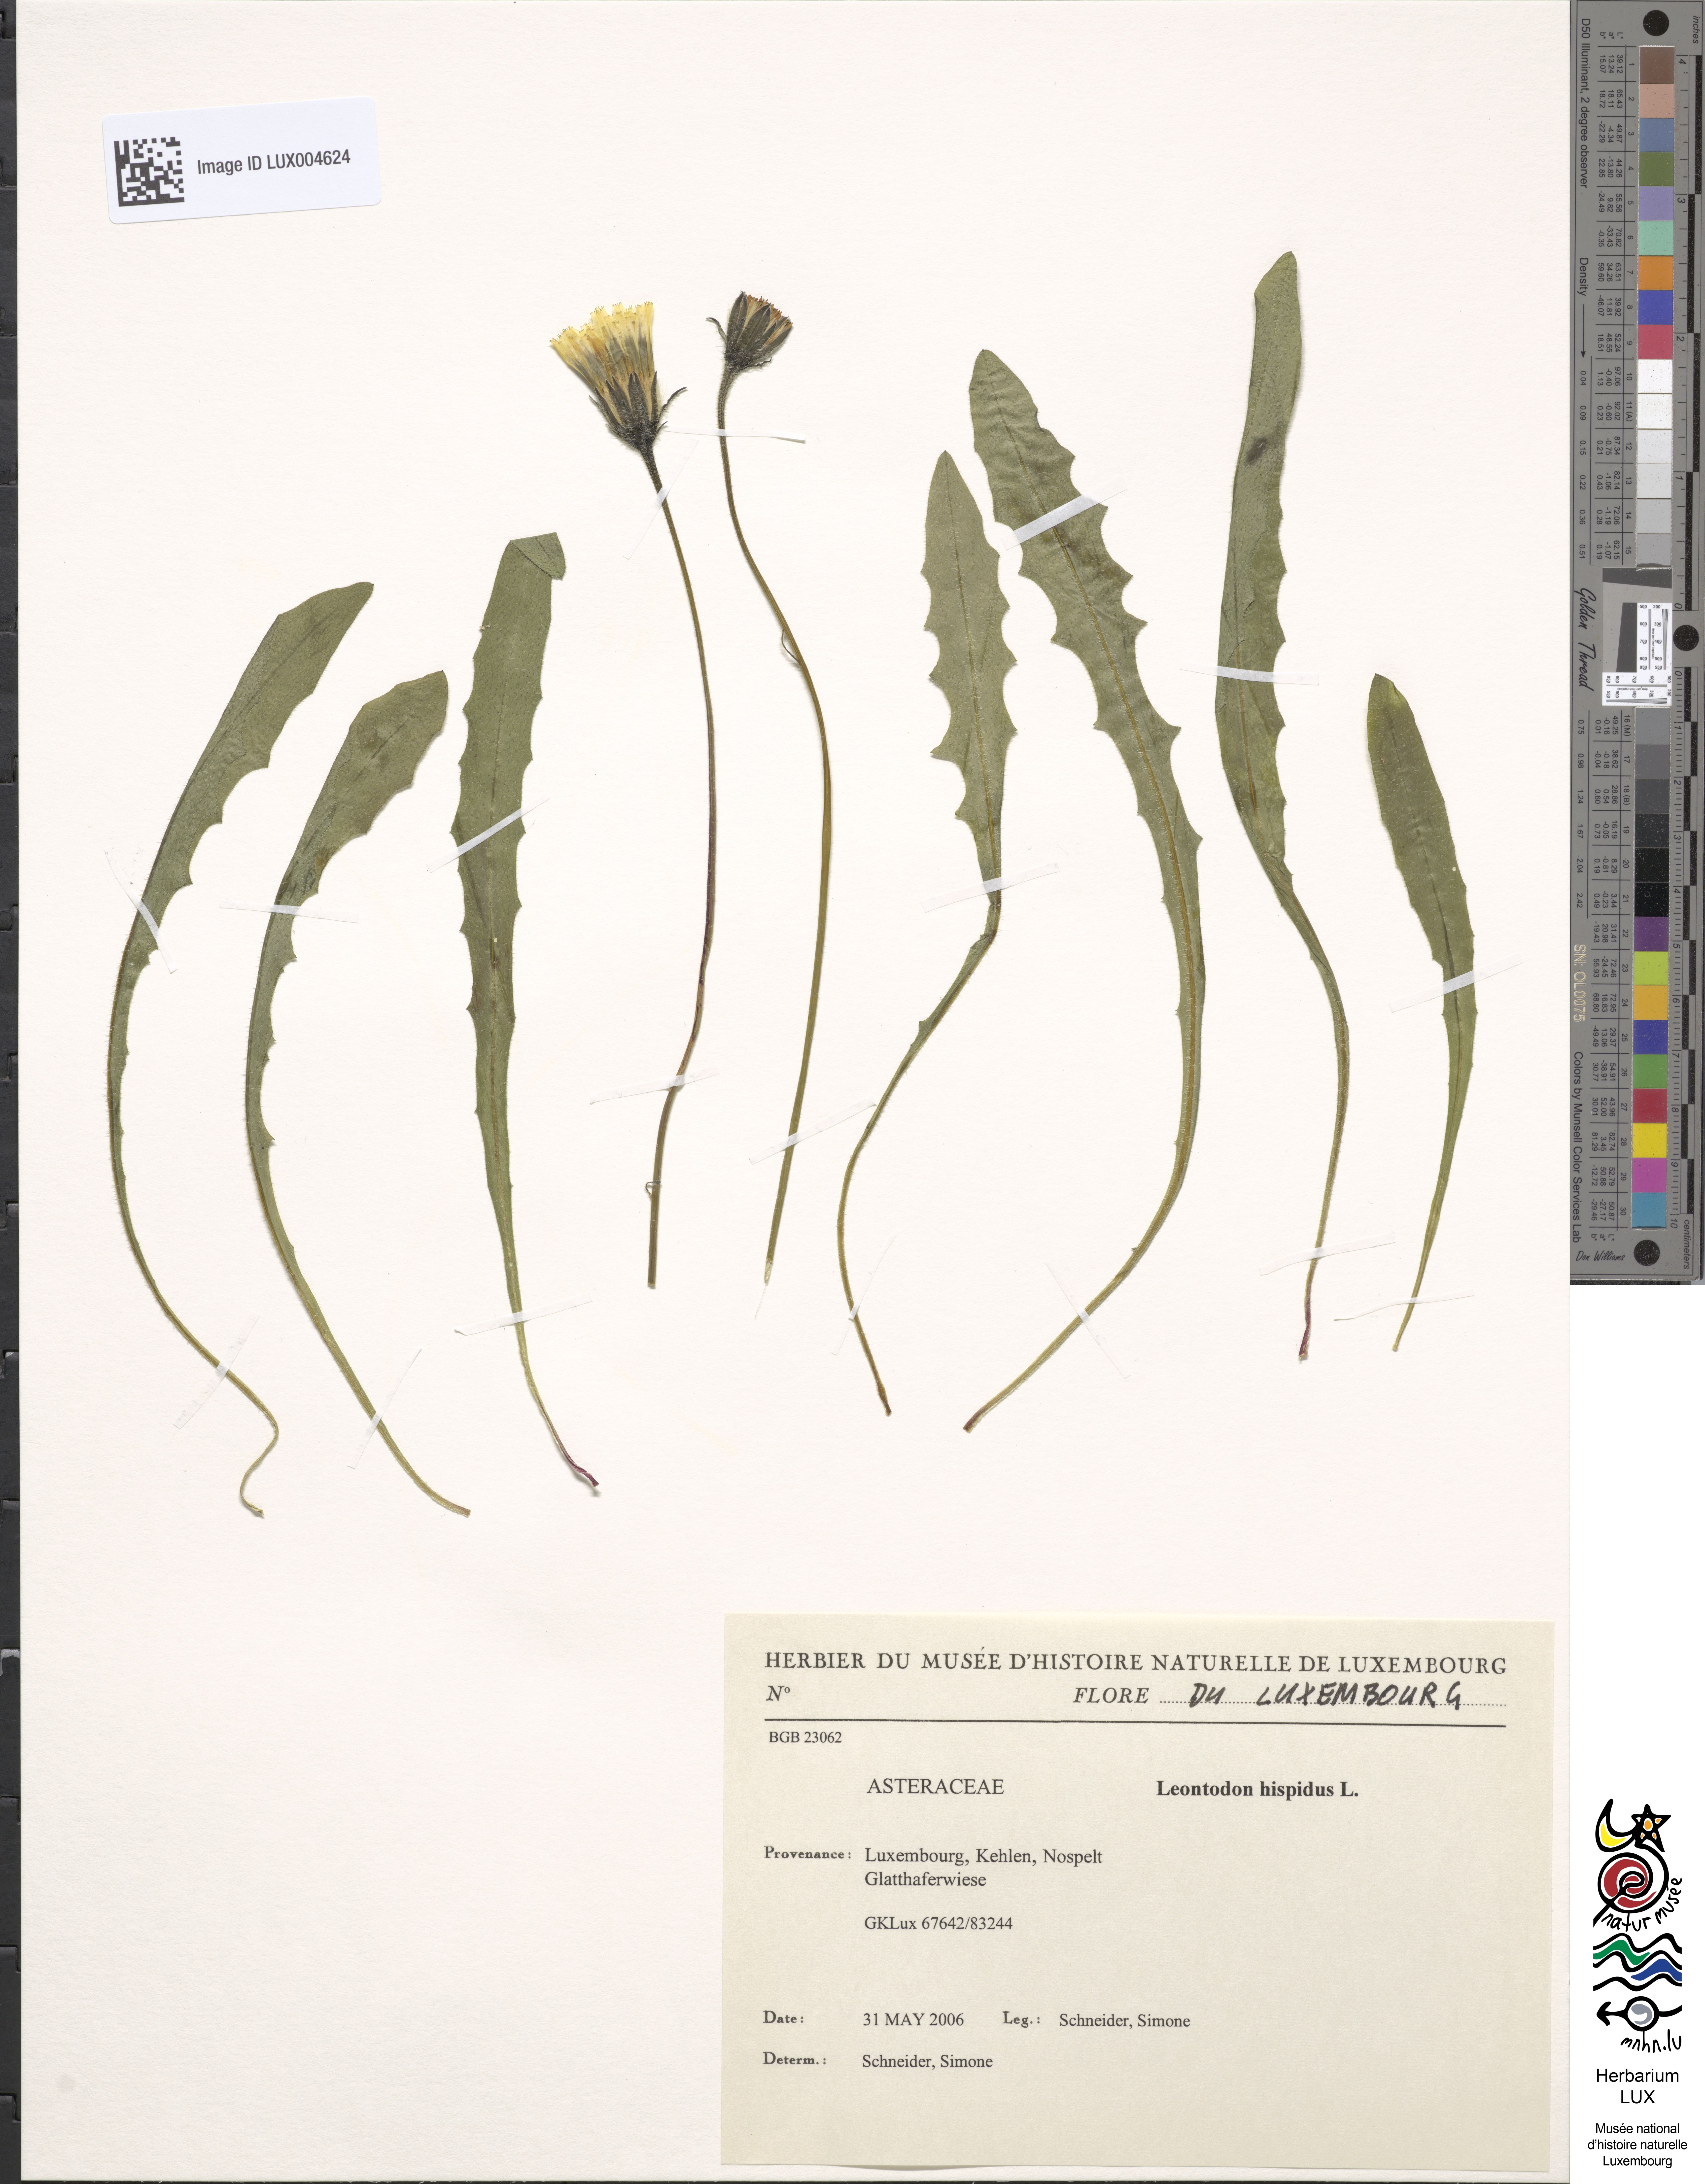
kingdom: Plantae
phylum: Tracheophyta
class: Magnoliopsida
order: Asterales
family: Asteraceae
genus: Leontodon
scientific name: Leontodon hispidus
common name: Rough hawkbit
